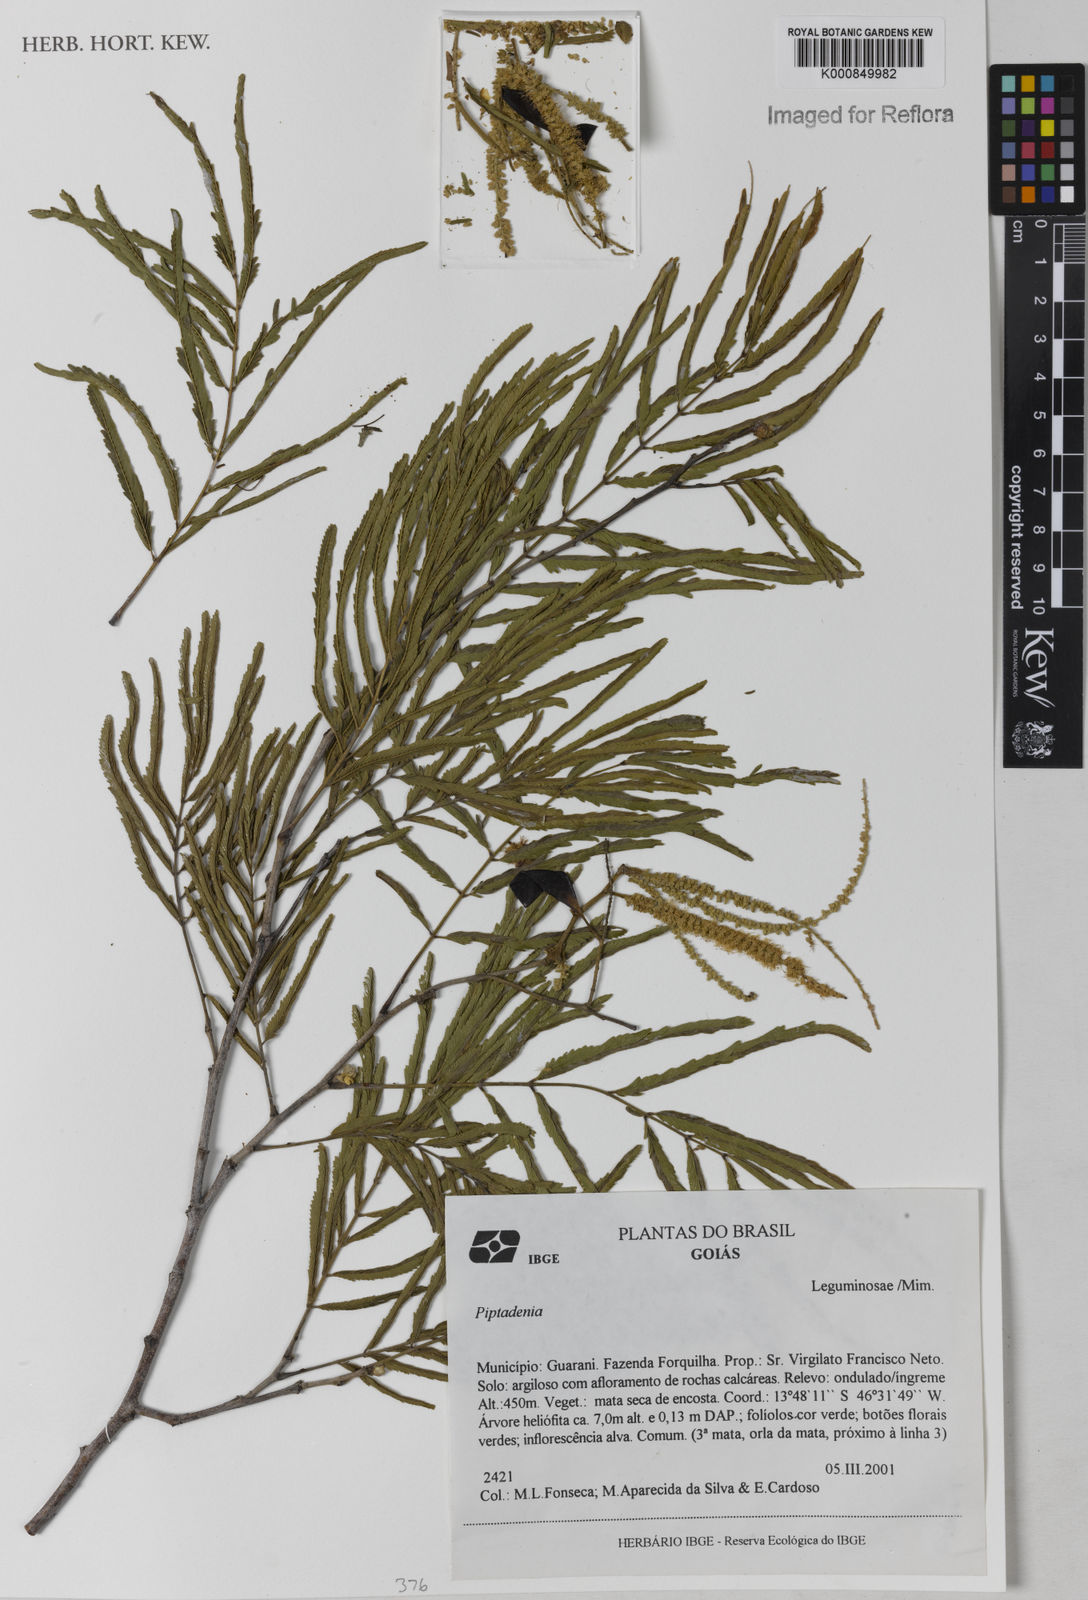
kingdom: Plantae
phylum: Tracheophyta
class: Magnoliopsida
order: Fabales
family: Fabaceae
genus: Piptadenia
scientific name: Piptadenia
